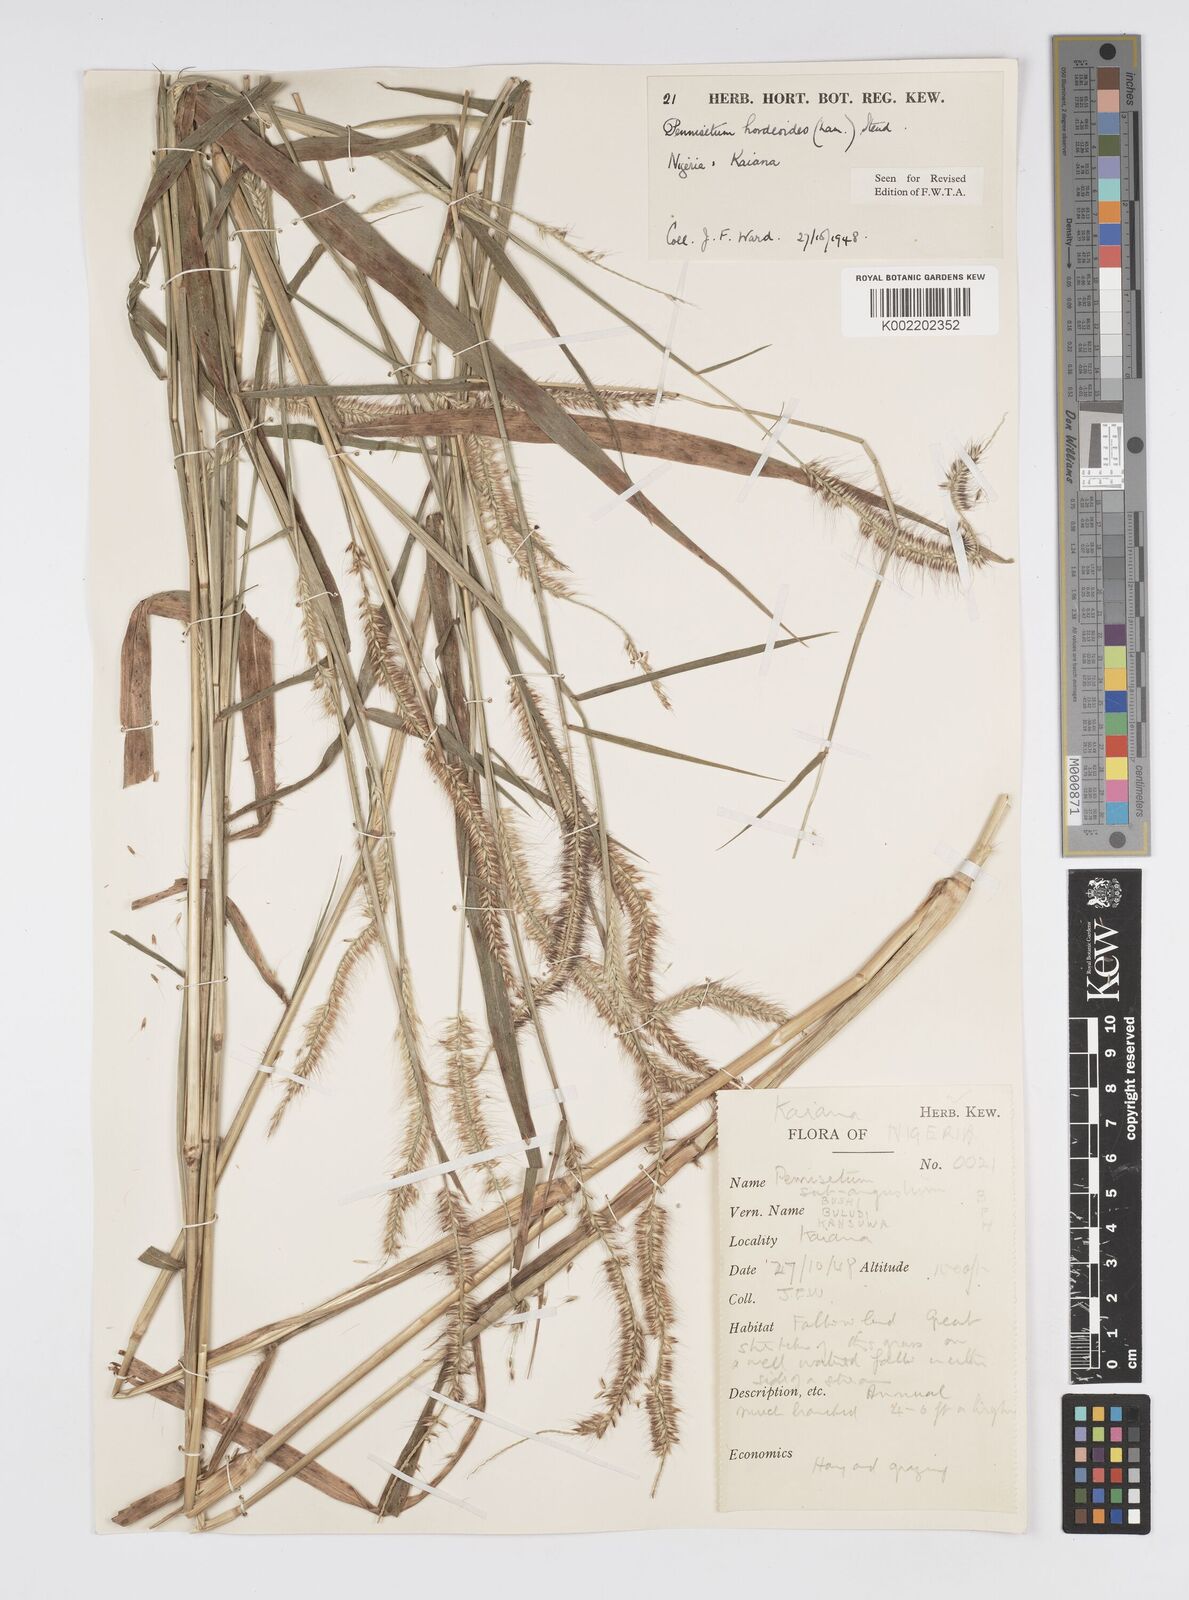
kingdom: Plantae
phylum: Tracheophyta
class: Liliopsida
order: Poales
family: Poaceae
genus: Cenchrus
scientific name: Cenchrus Pennisetum spec
